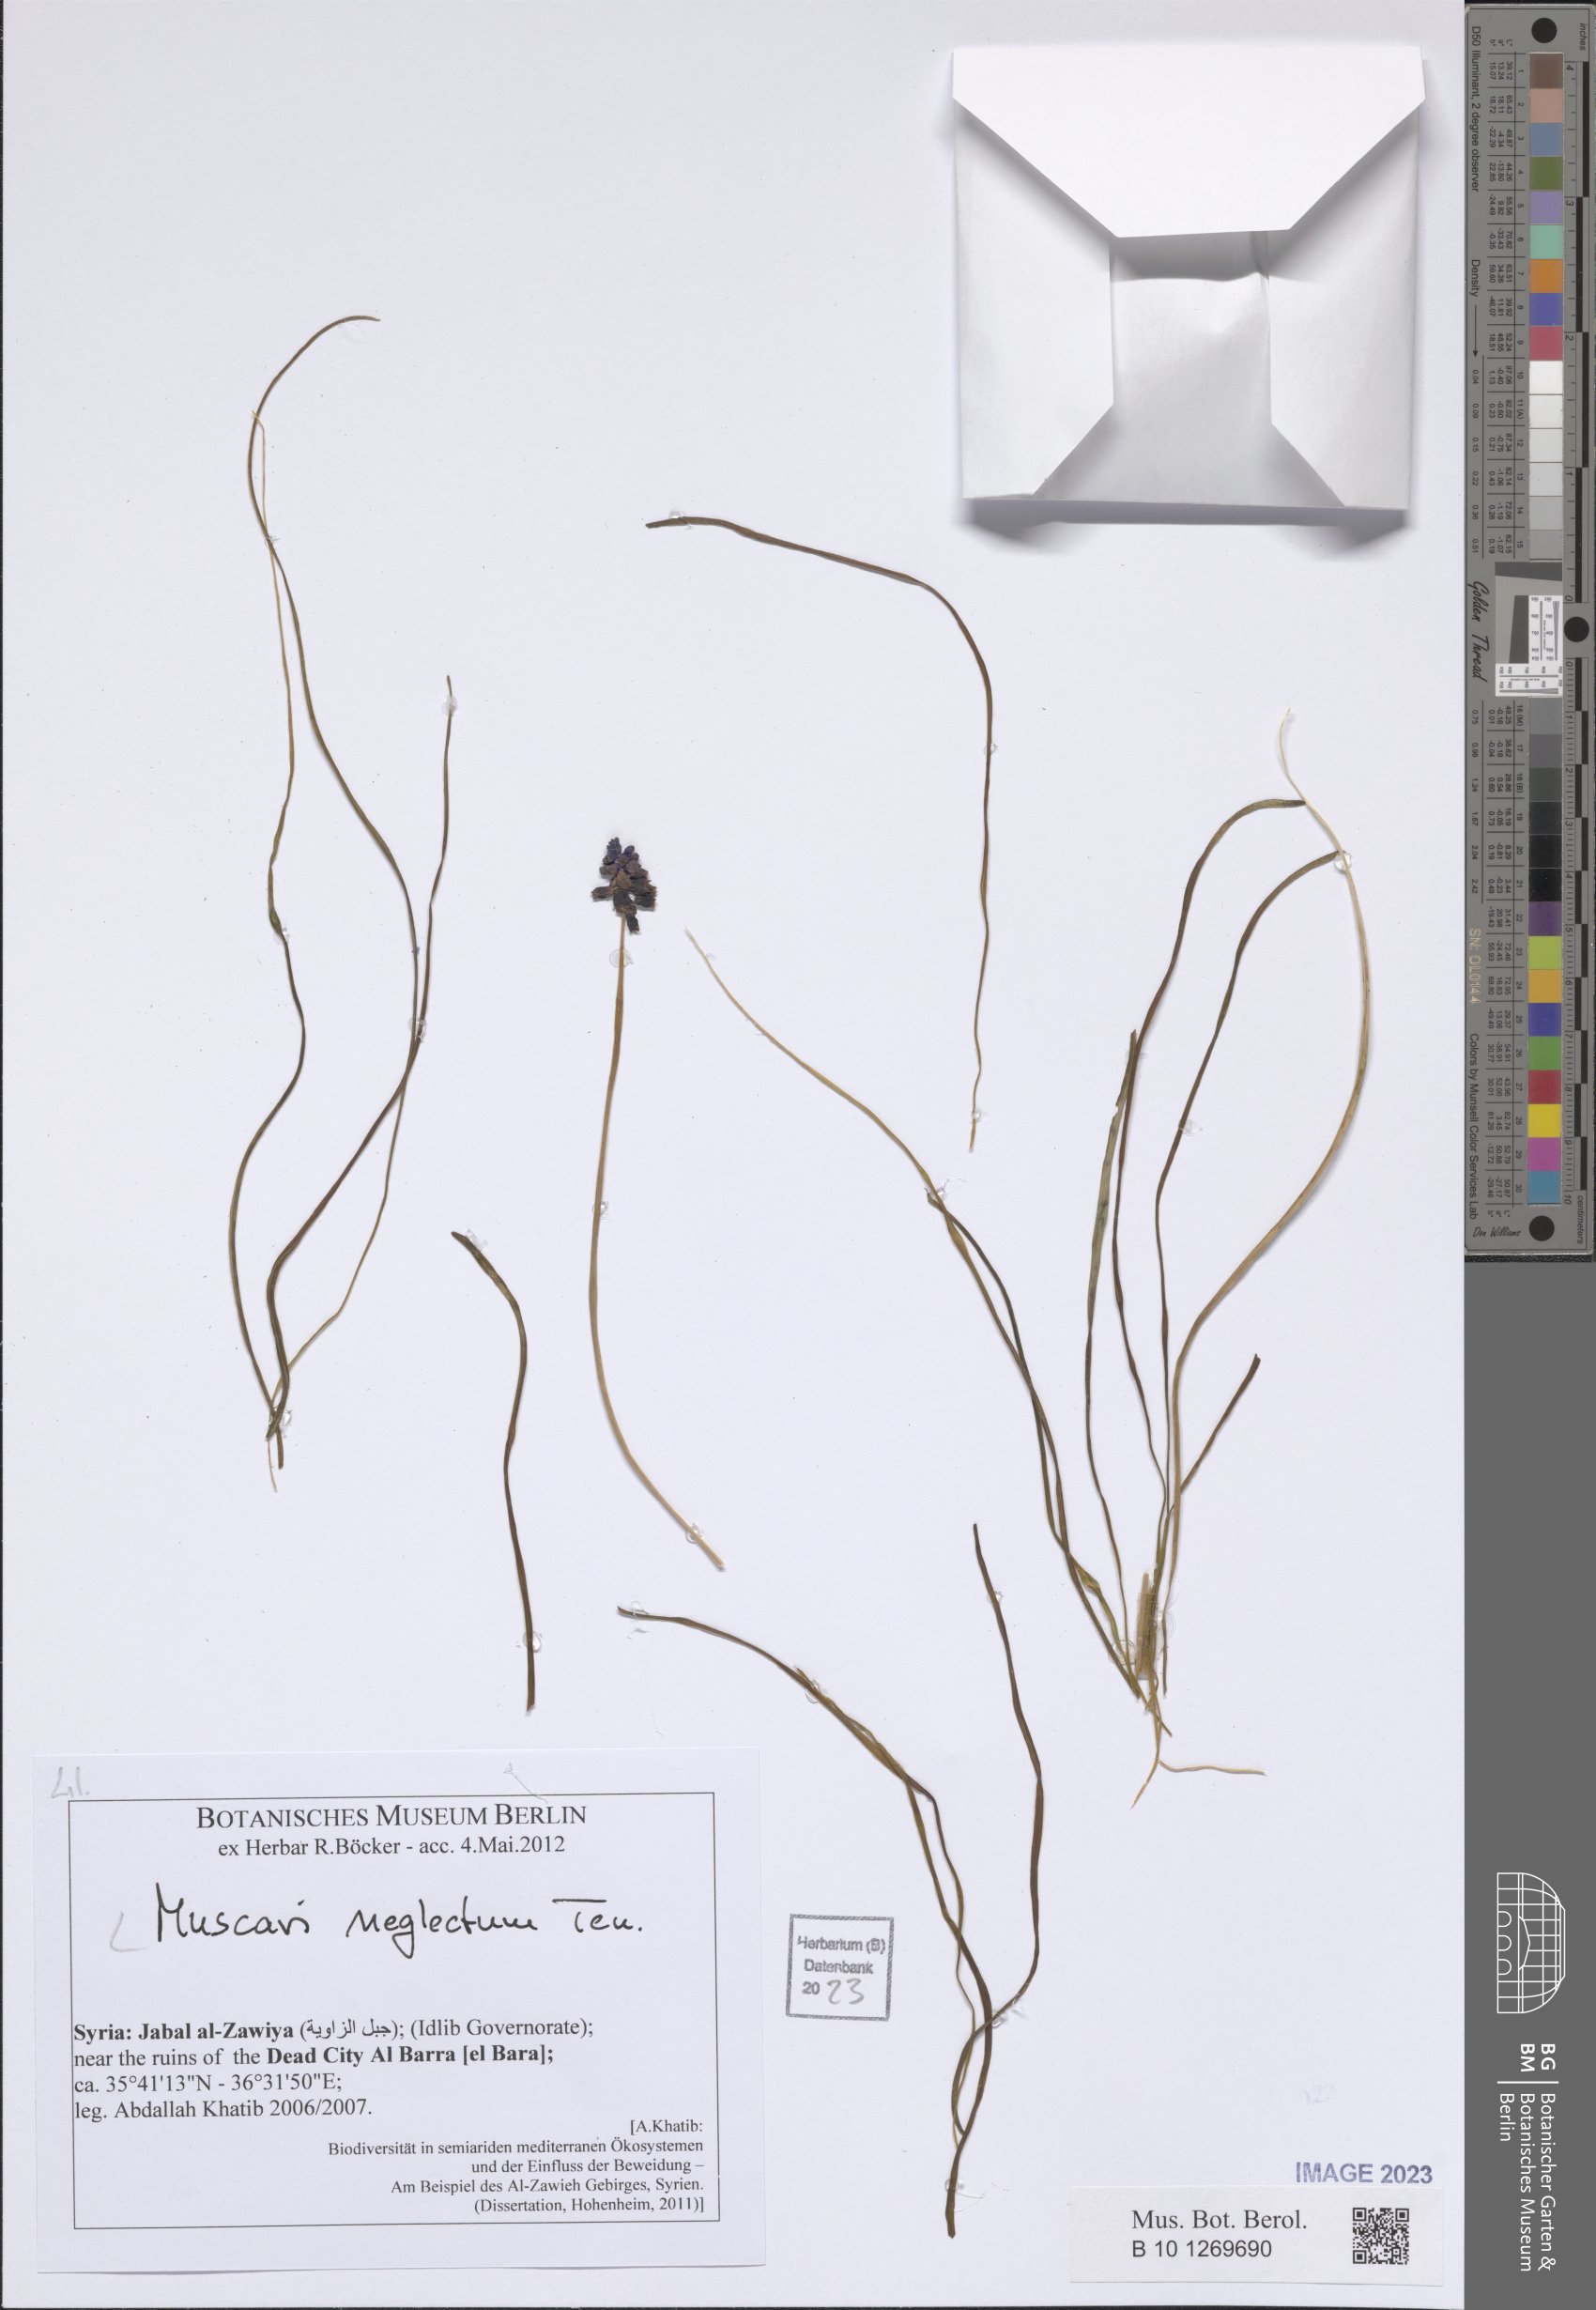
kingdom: Plantae
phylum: Tracheophyta
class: Liliopsida
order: Asparagales
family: Asparagaceae
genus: Muscari
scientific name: Muscari neglectum
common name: Grape-hyacinth
